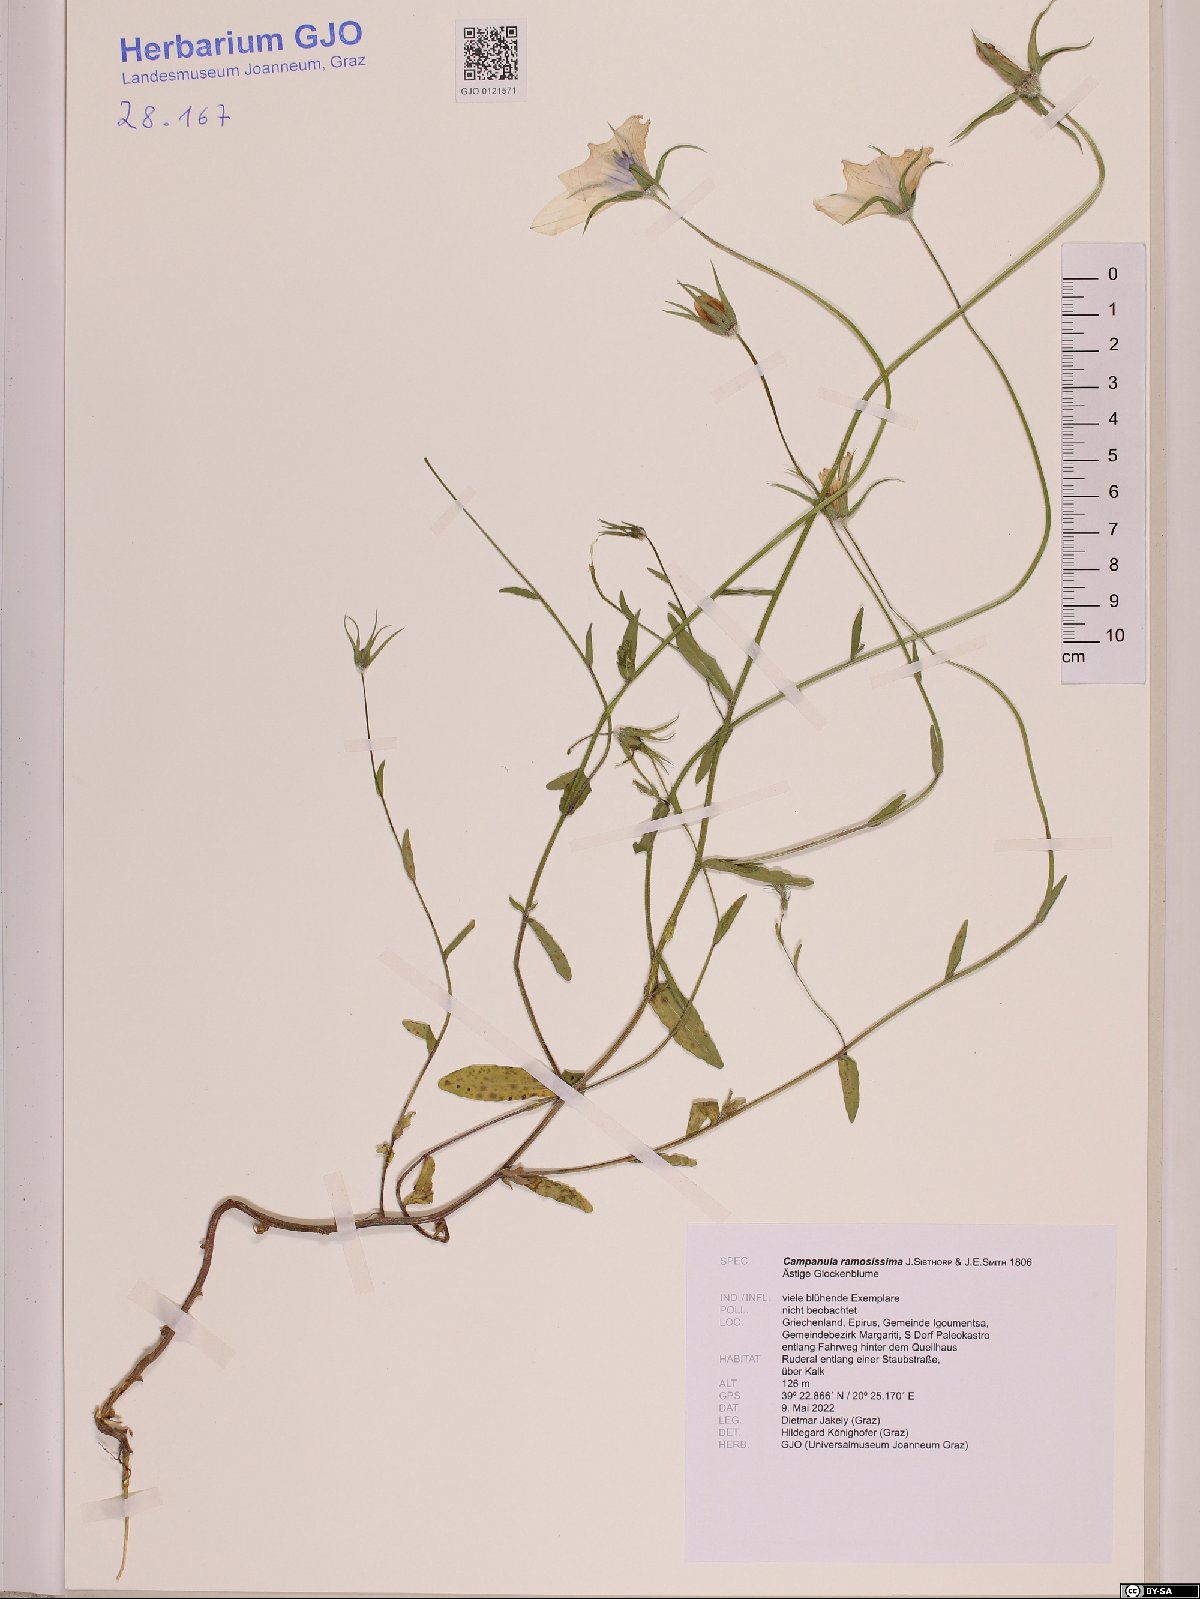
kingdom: Plantae
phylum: Tracheophyta
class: Magnoliopsida
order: Asterales
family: Campanulaceae
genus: Campanula
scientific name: Campanula ramosissima
